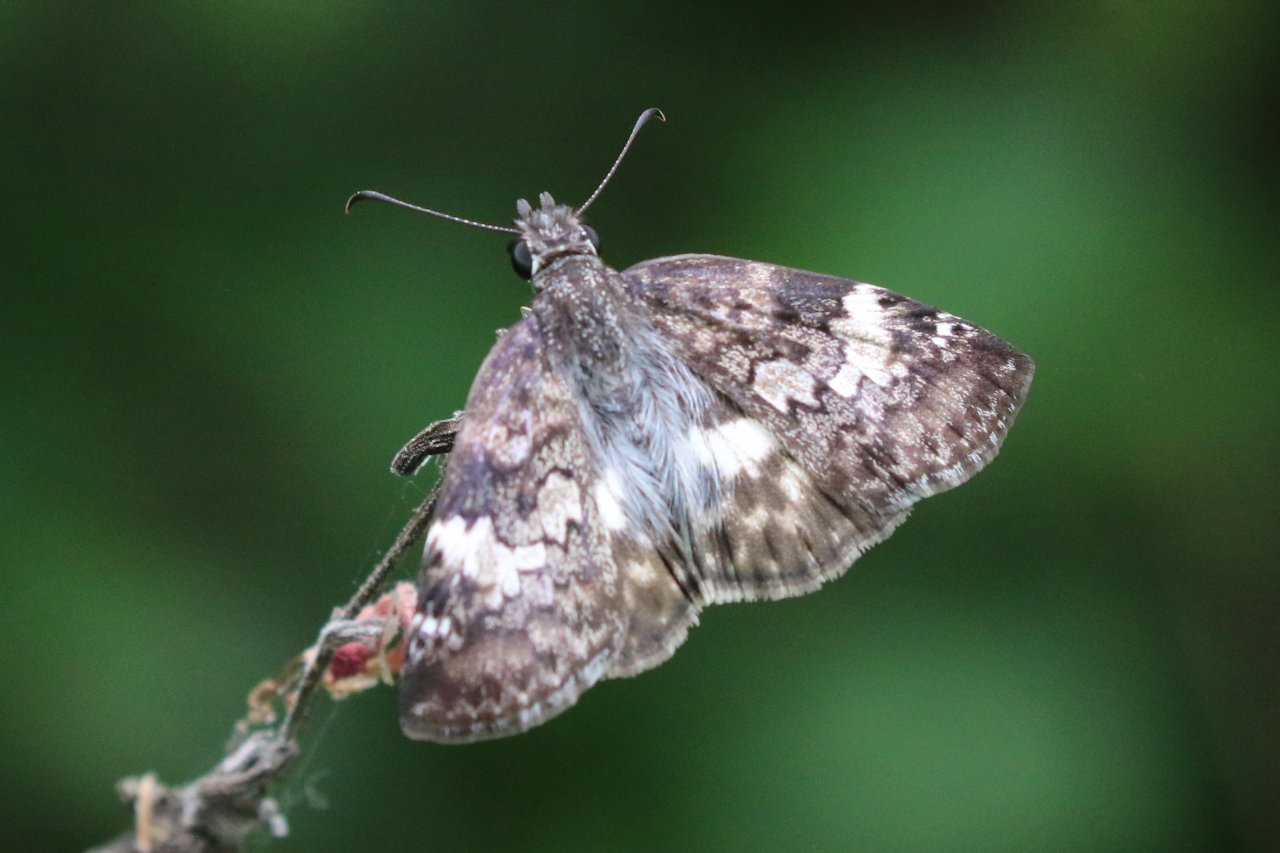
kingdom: Animalia
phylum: Arthropoda
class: Insecta
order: Lepidoptera
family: Hesperiidae
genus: Chiomara
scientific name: Chiomara asychis
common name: White-patched Skipper
